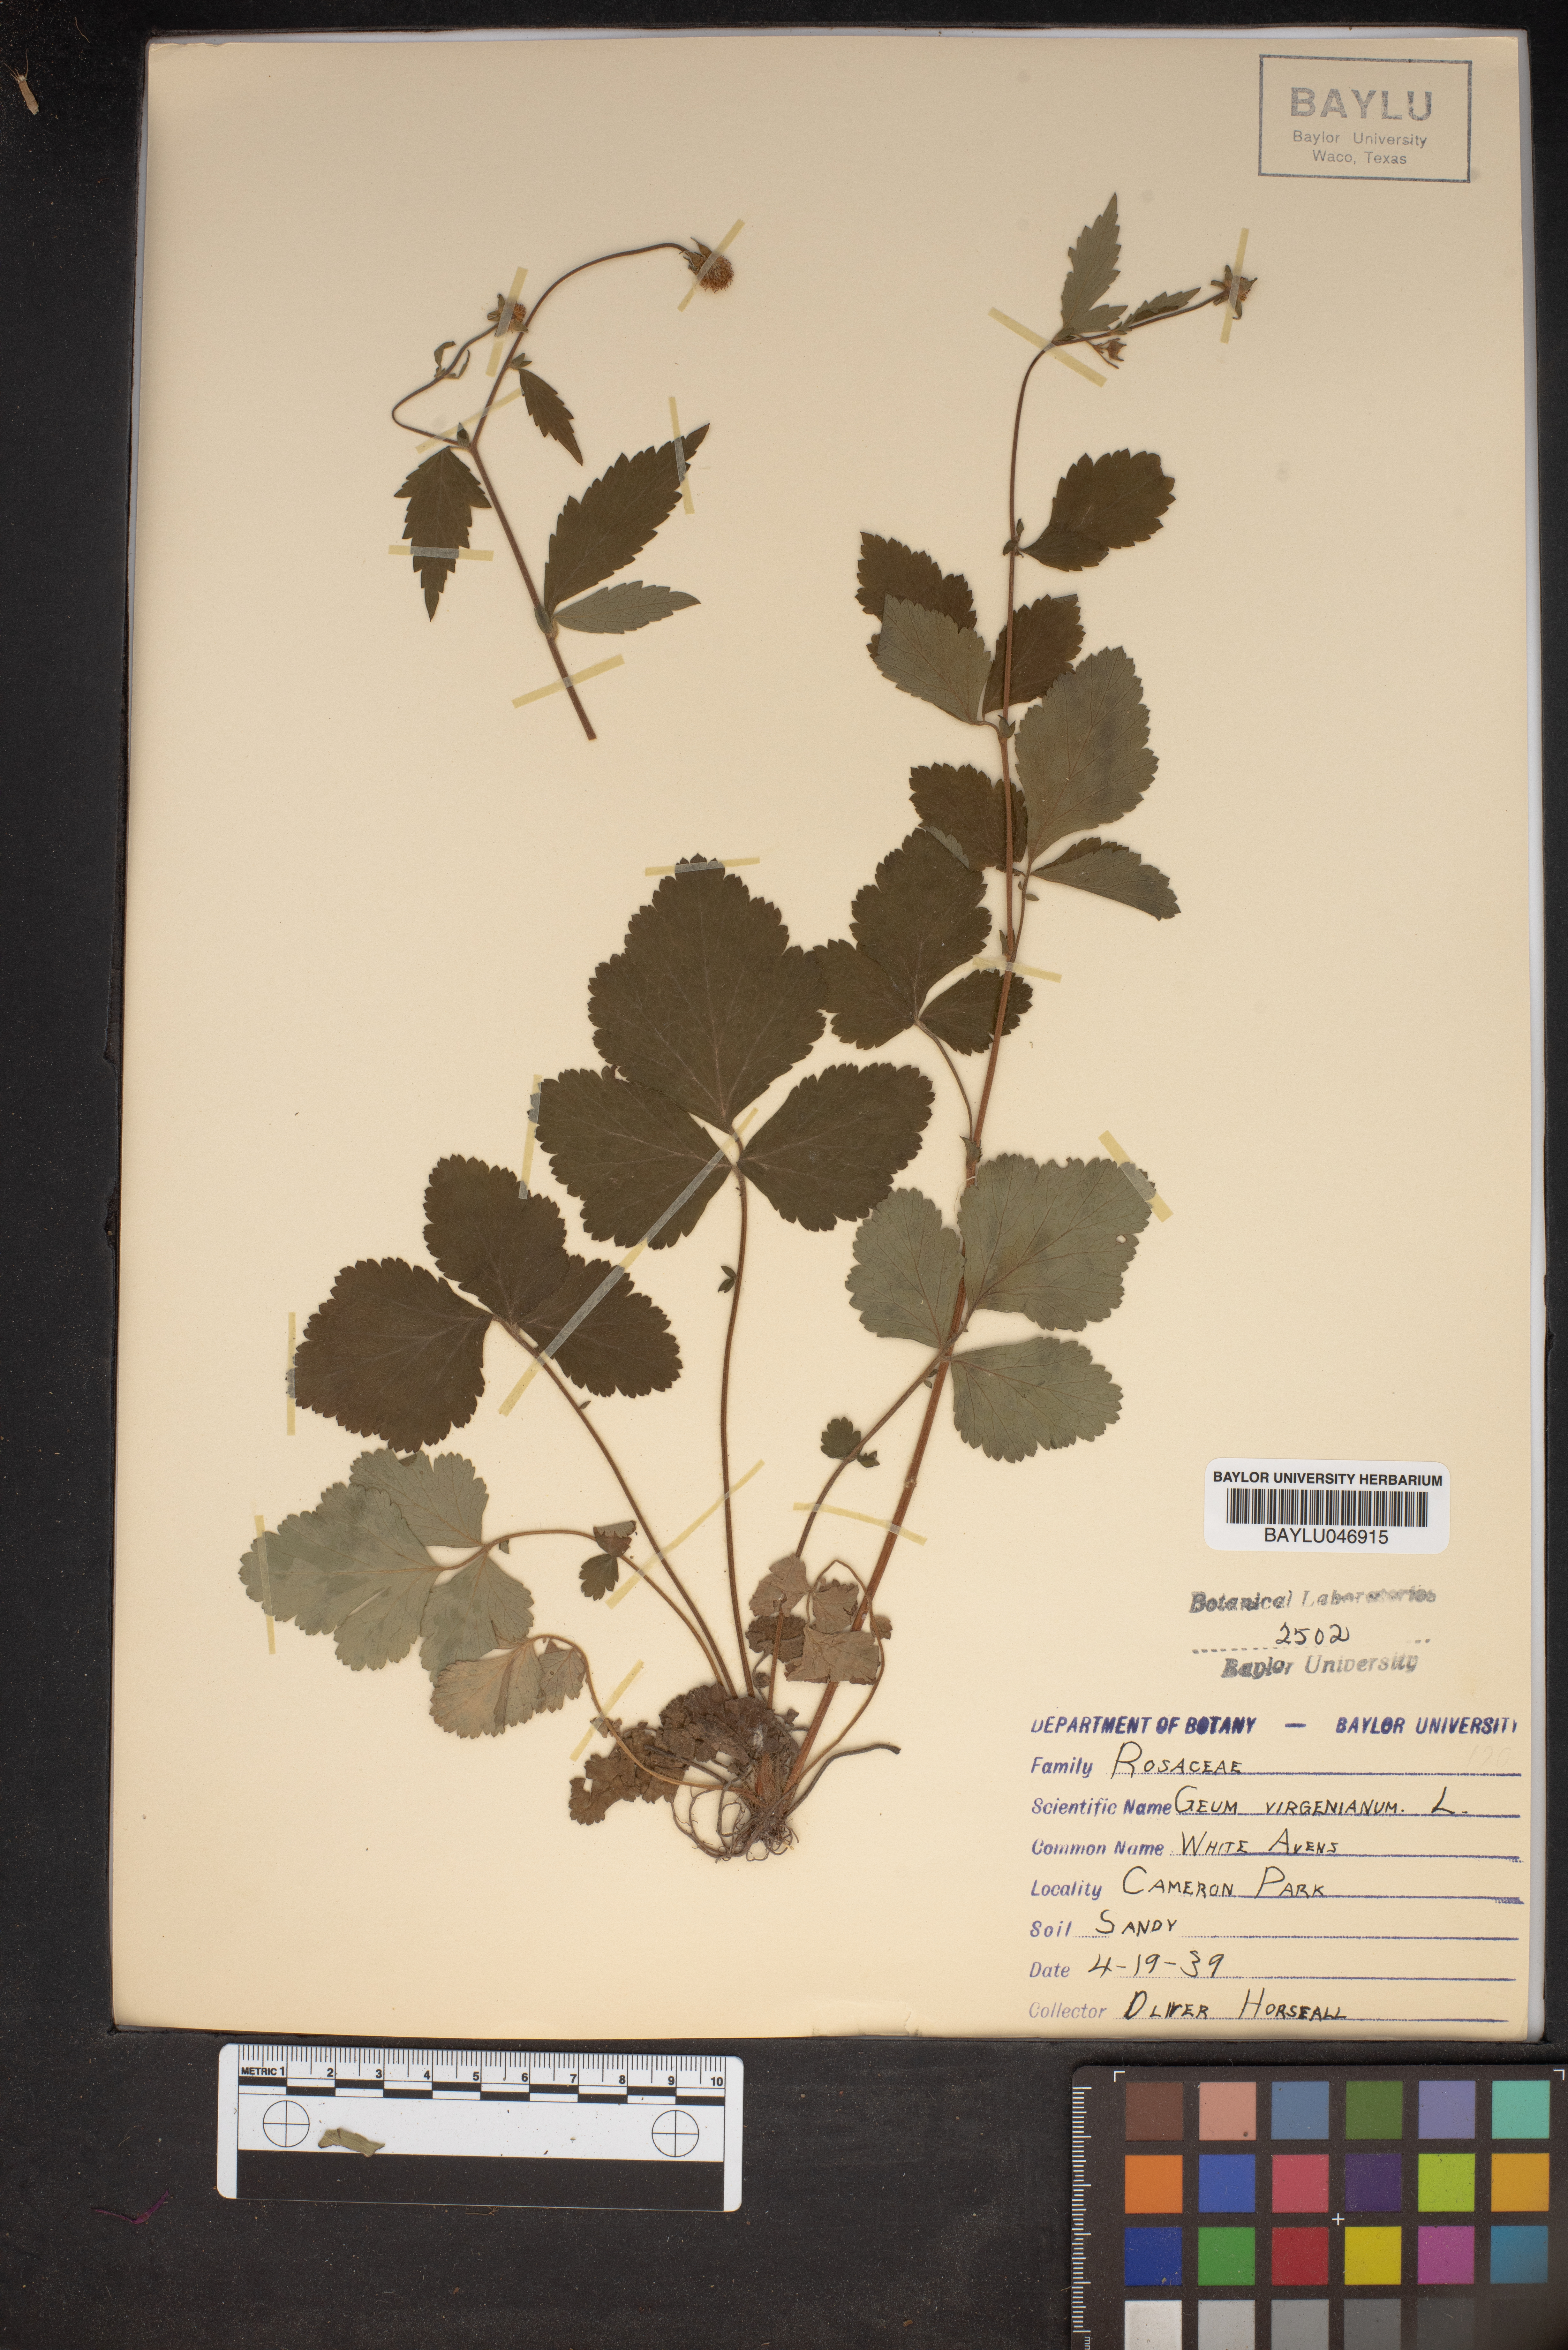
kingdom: Plantae
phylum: Tracheophyta
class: Magnoliopsida
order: Rosales
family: Rosaceae
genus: Geum
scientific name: Geum virginianum
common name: Cream avens
